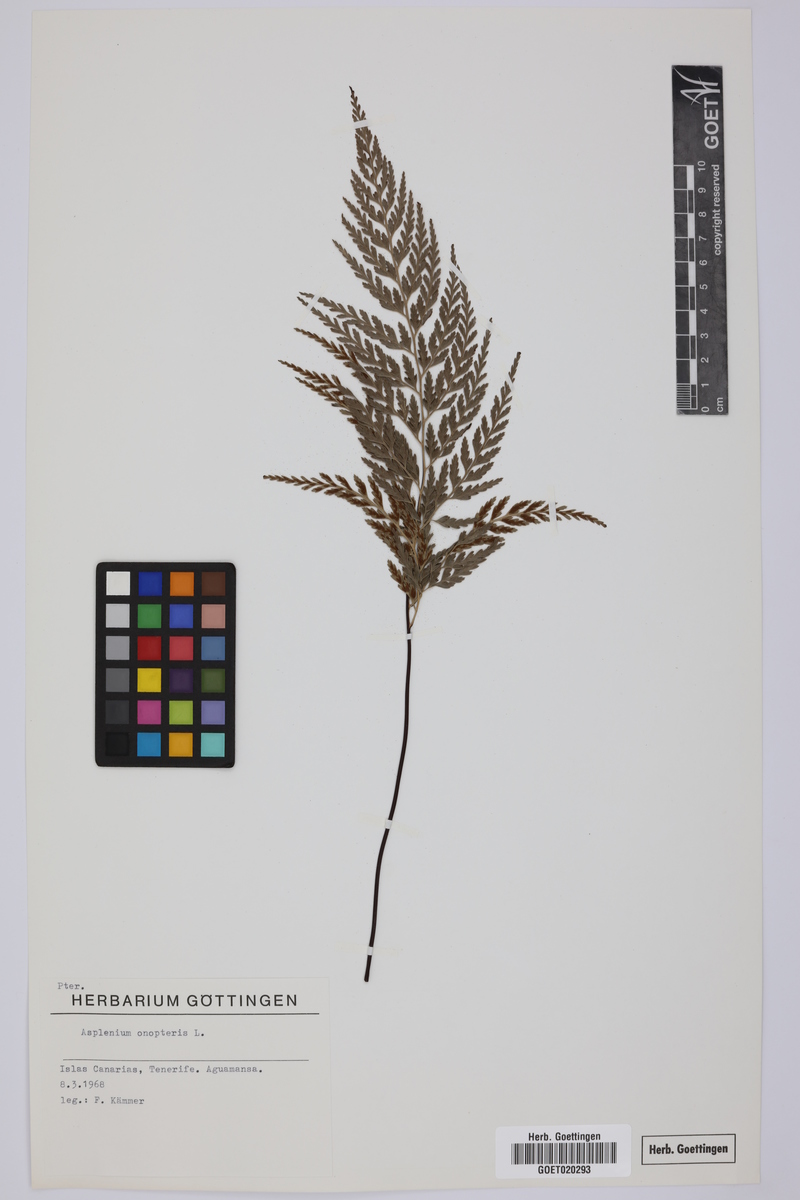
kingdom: Plantae
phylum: Tracheophyta
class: Polypodiopsida
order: Polypodiales
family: Aspleniaceae
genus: Asplenium
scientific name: Asplenium onopteris
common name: Irish spleenwort
